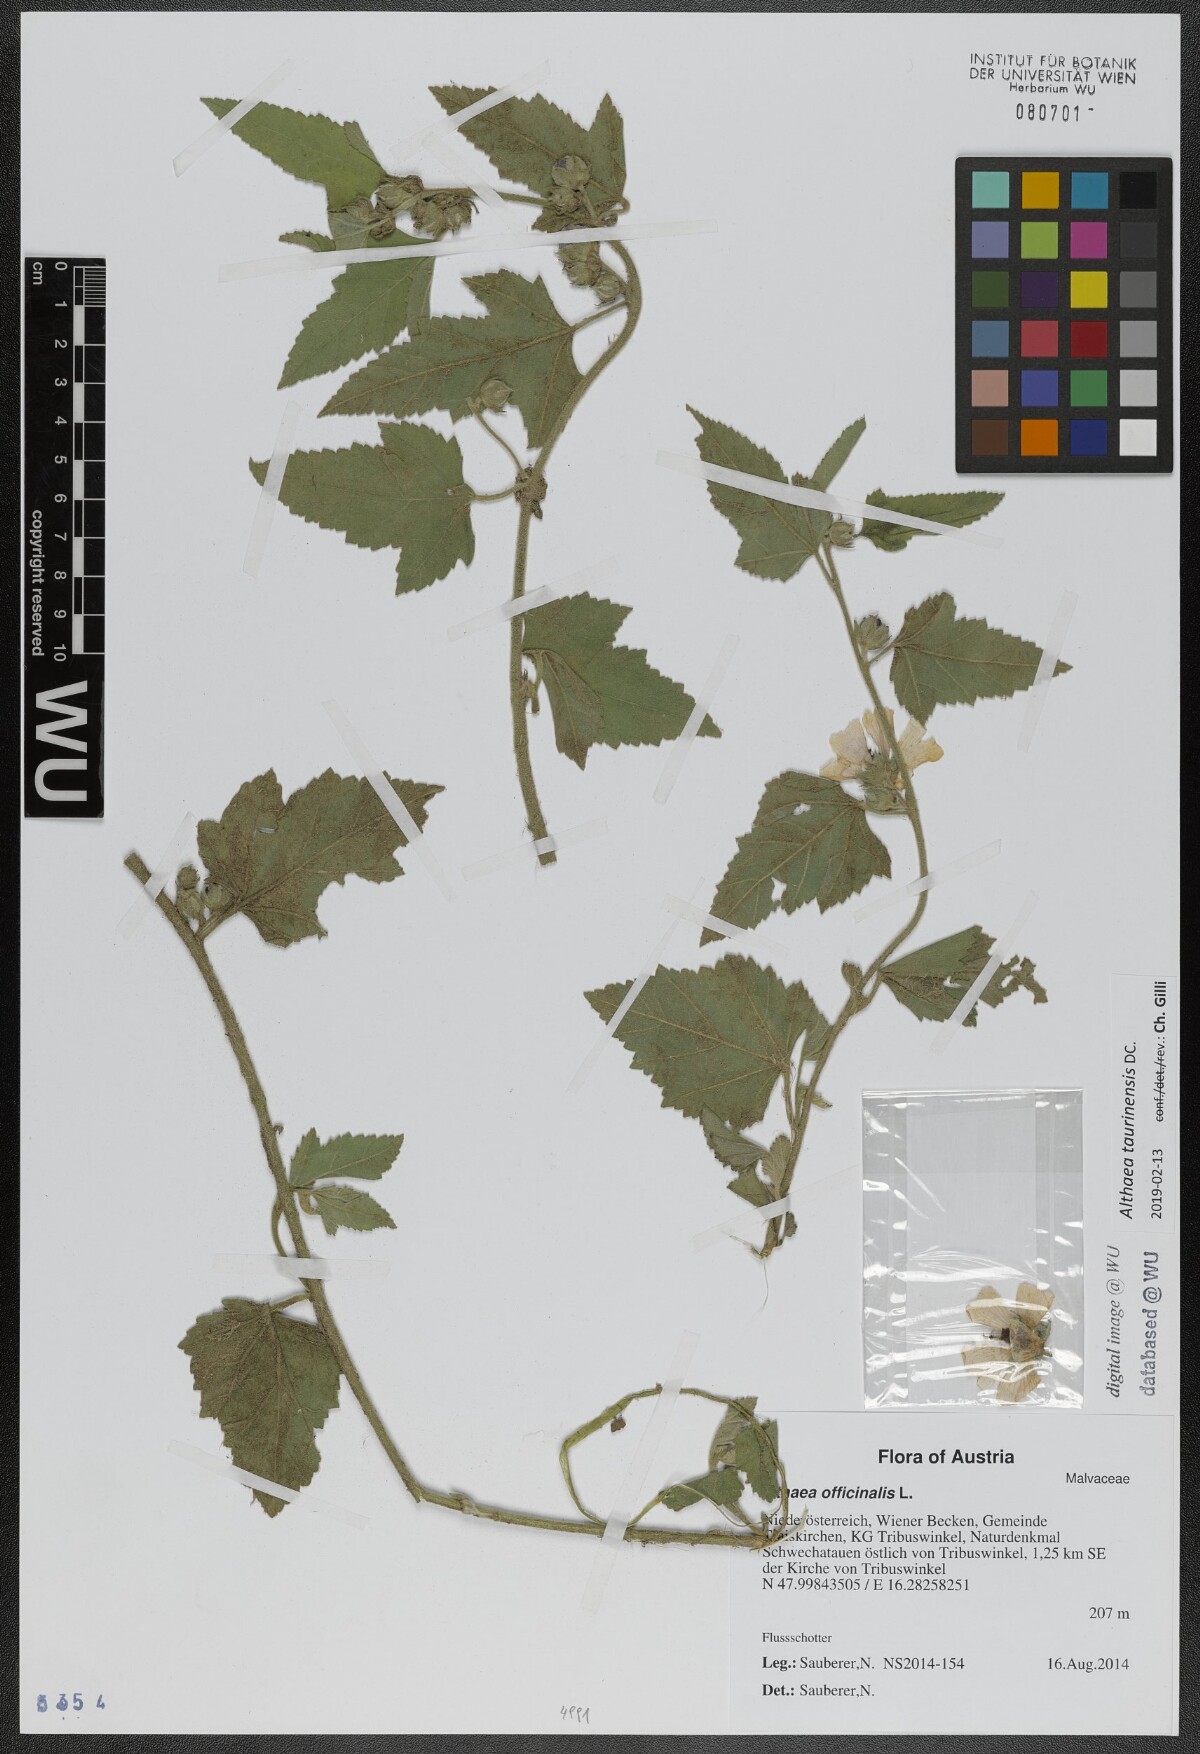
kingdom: Plantae
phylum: Tracheophyta
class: Magnoliopsida
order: Malvales
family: Malvaceae
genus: Althaea
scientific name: Althaea taurinensis
